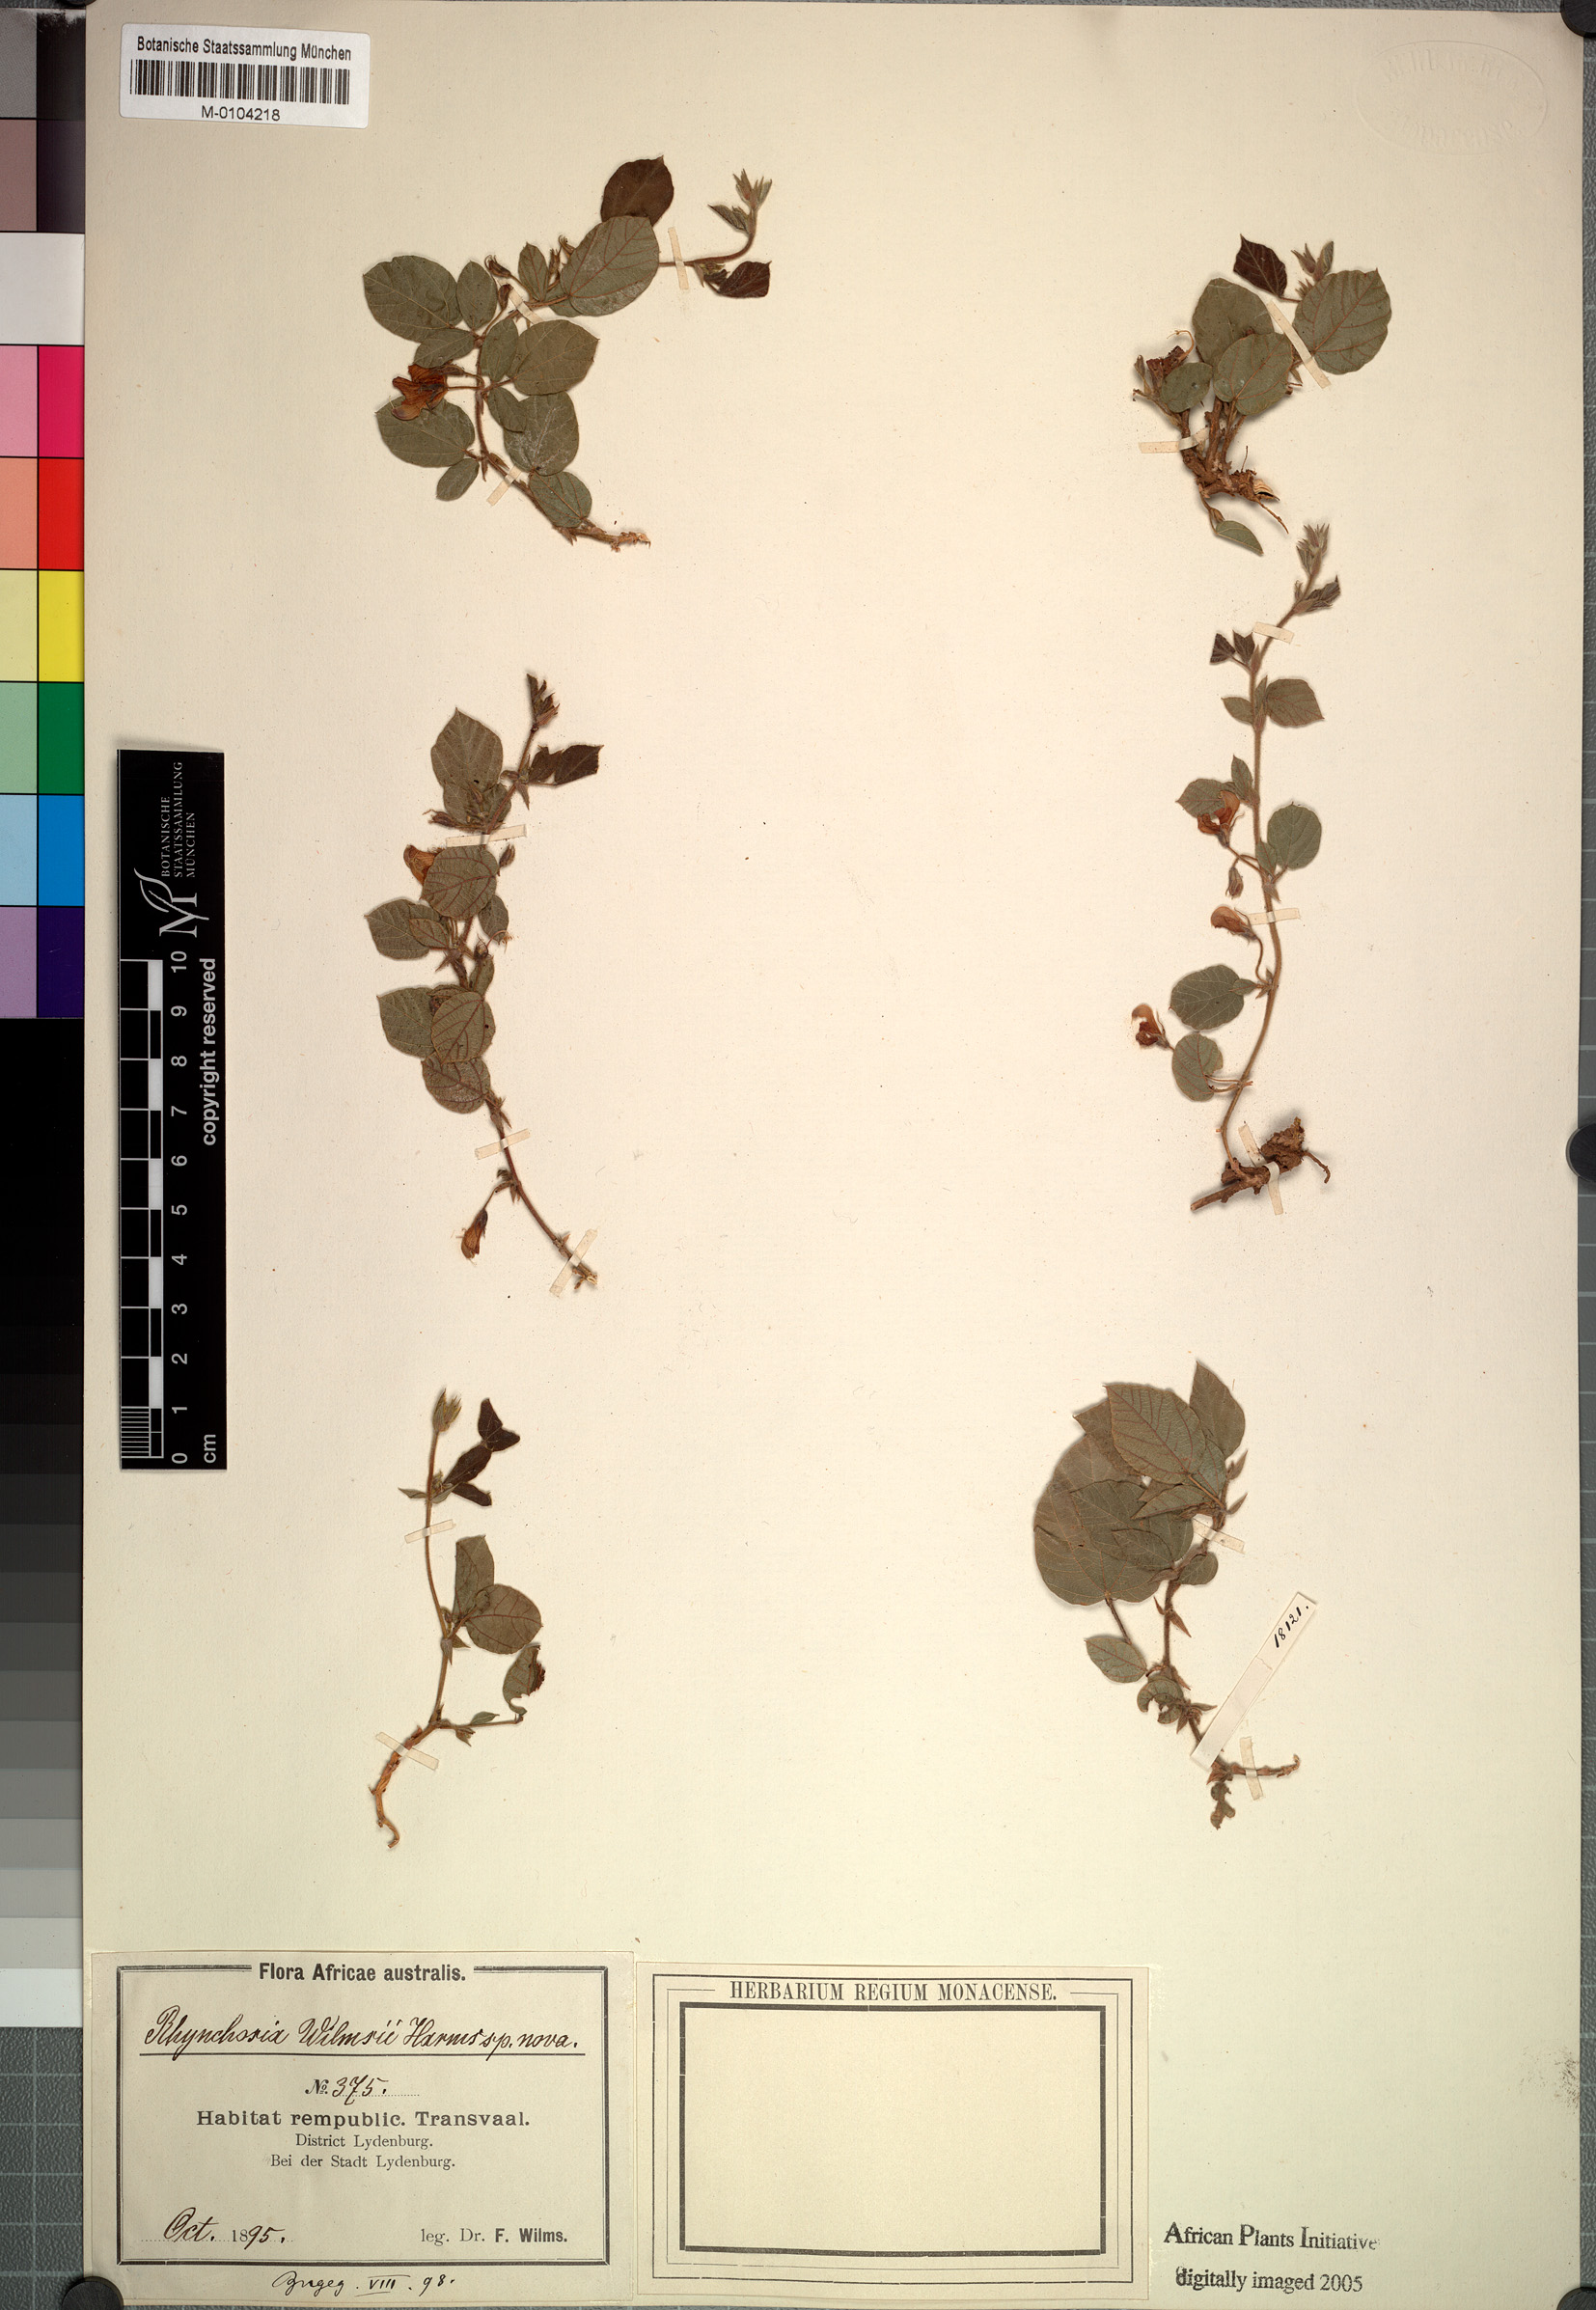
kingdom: Plantae
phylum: Tracheophyta
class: Magnoliopsida
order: Fabales
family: Fabaceae
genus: Rhynchosia
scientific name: Rhynchosia monophylla
